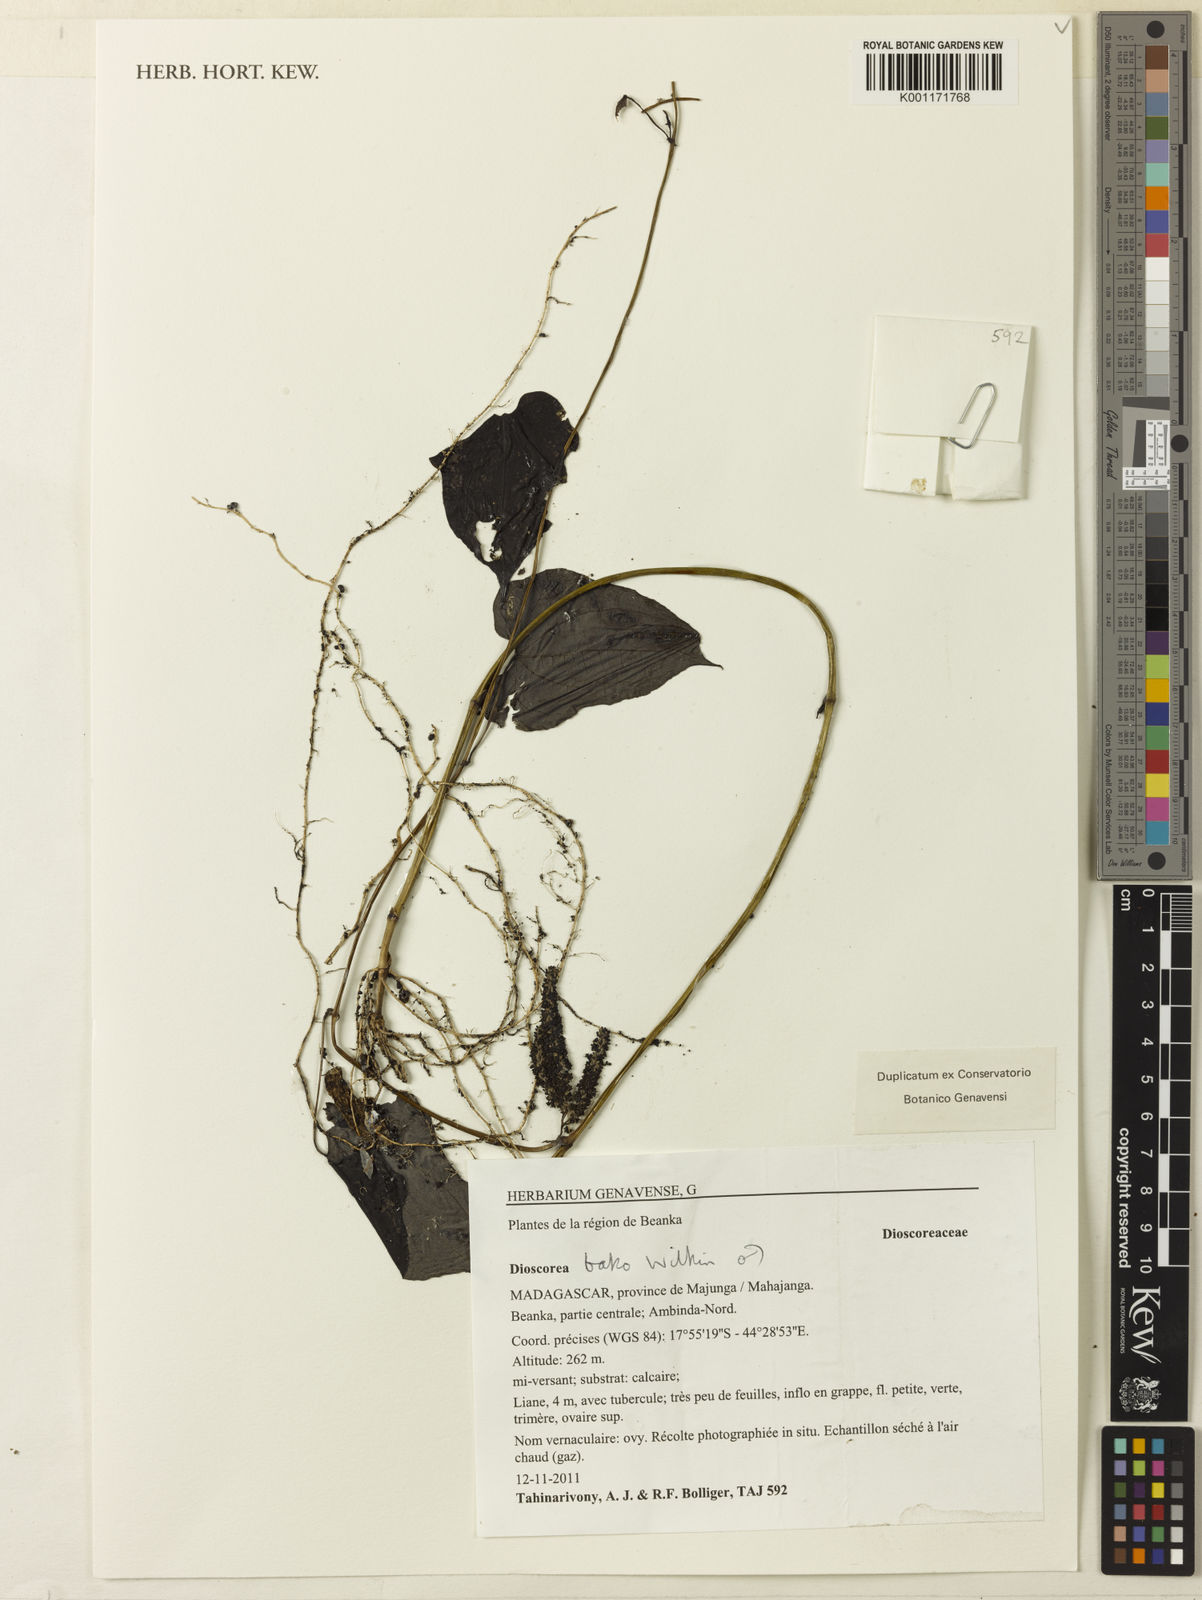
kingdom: Plantae
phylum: Tracheophyta
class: Liliopsida
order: Dioscoreales
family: Dioscoreaceae
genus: Dioscorea
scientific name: Dioscorea bako
